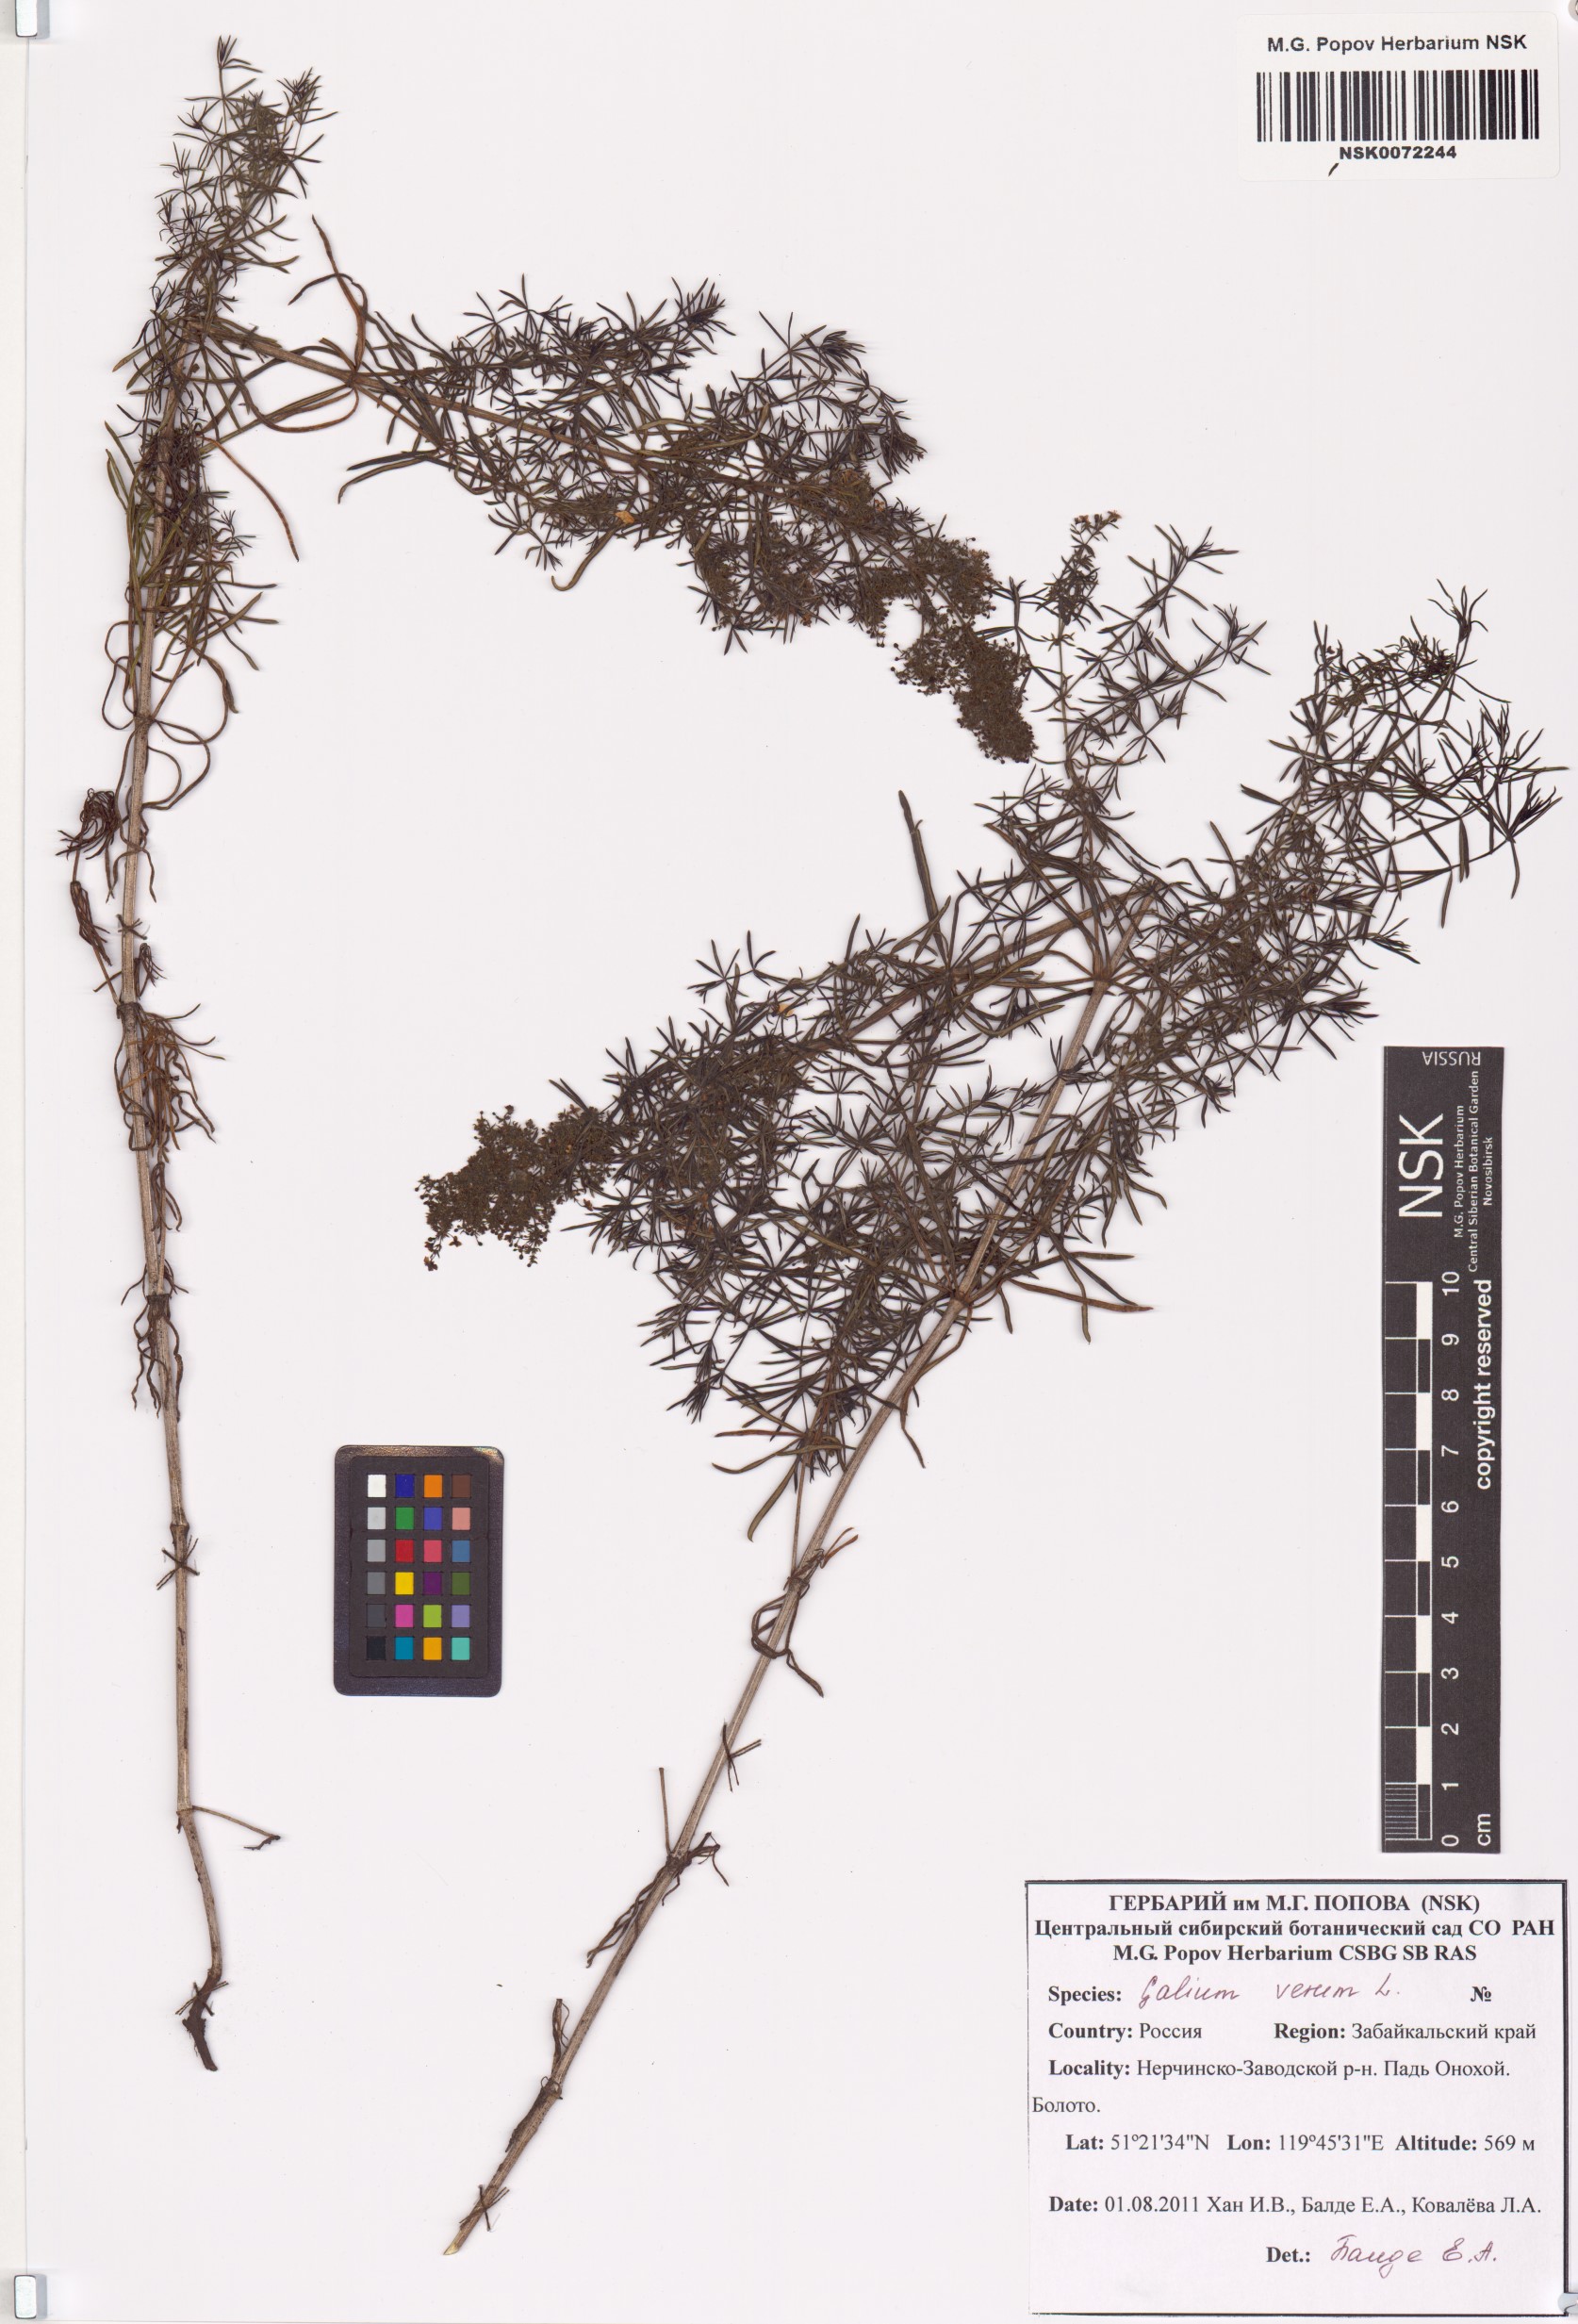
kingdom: Plantae
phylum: Tracheophyta
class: Magnoliopsida
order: Gentianales
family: Rubiaceae
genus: Galium
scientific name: Galium verum
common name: Lady's bedstraw
